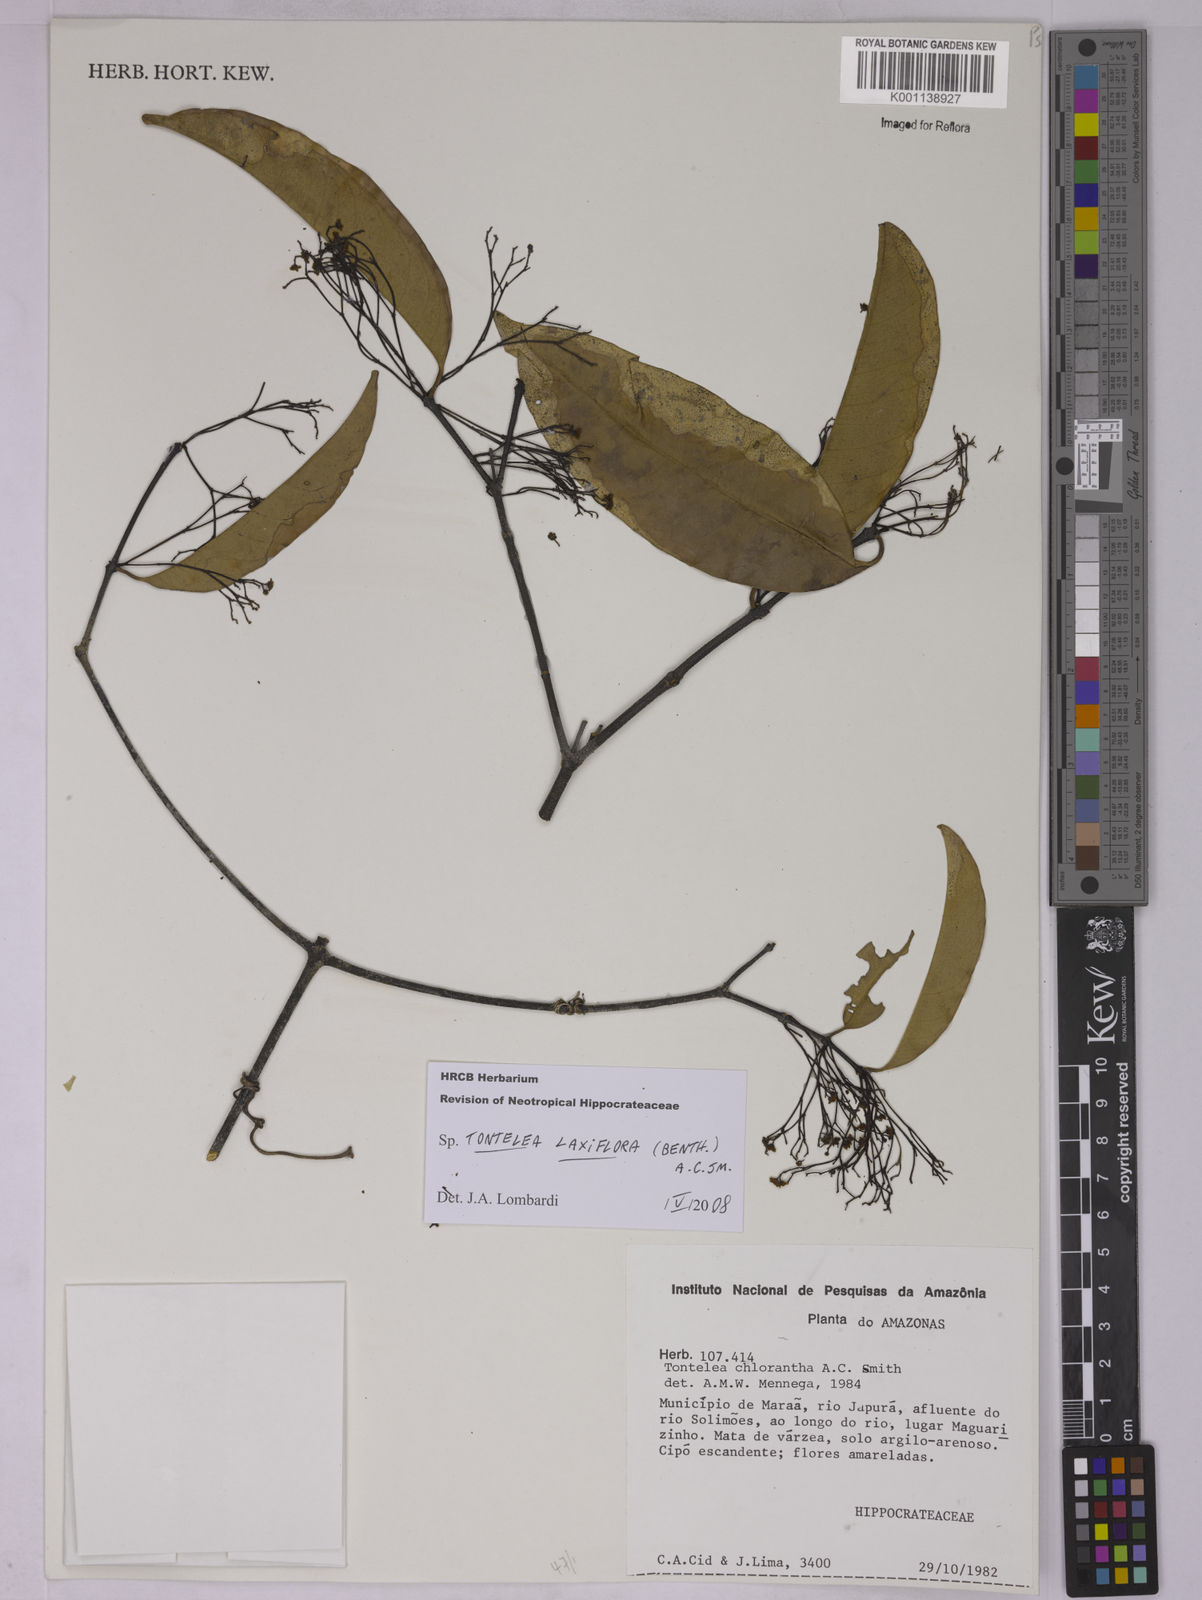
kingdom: Plantae
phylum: Tracheophyta
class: Magnoliopsida
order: Celastrales
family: Celastraceae
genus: Tontelea
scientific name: Tontelea laxiflora
